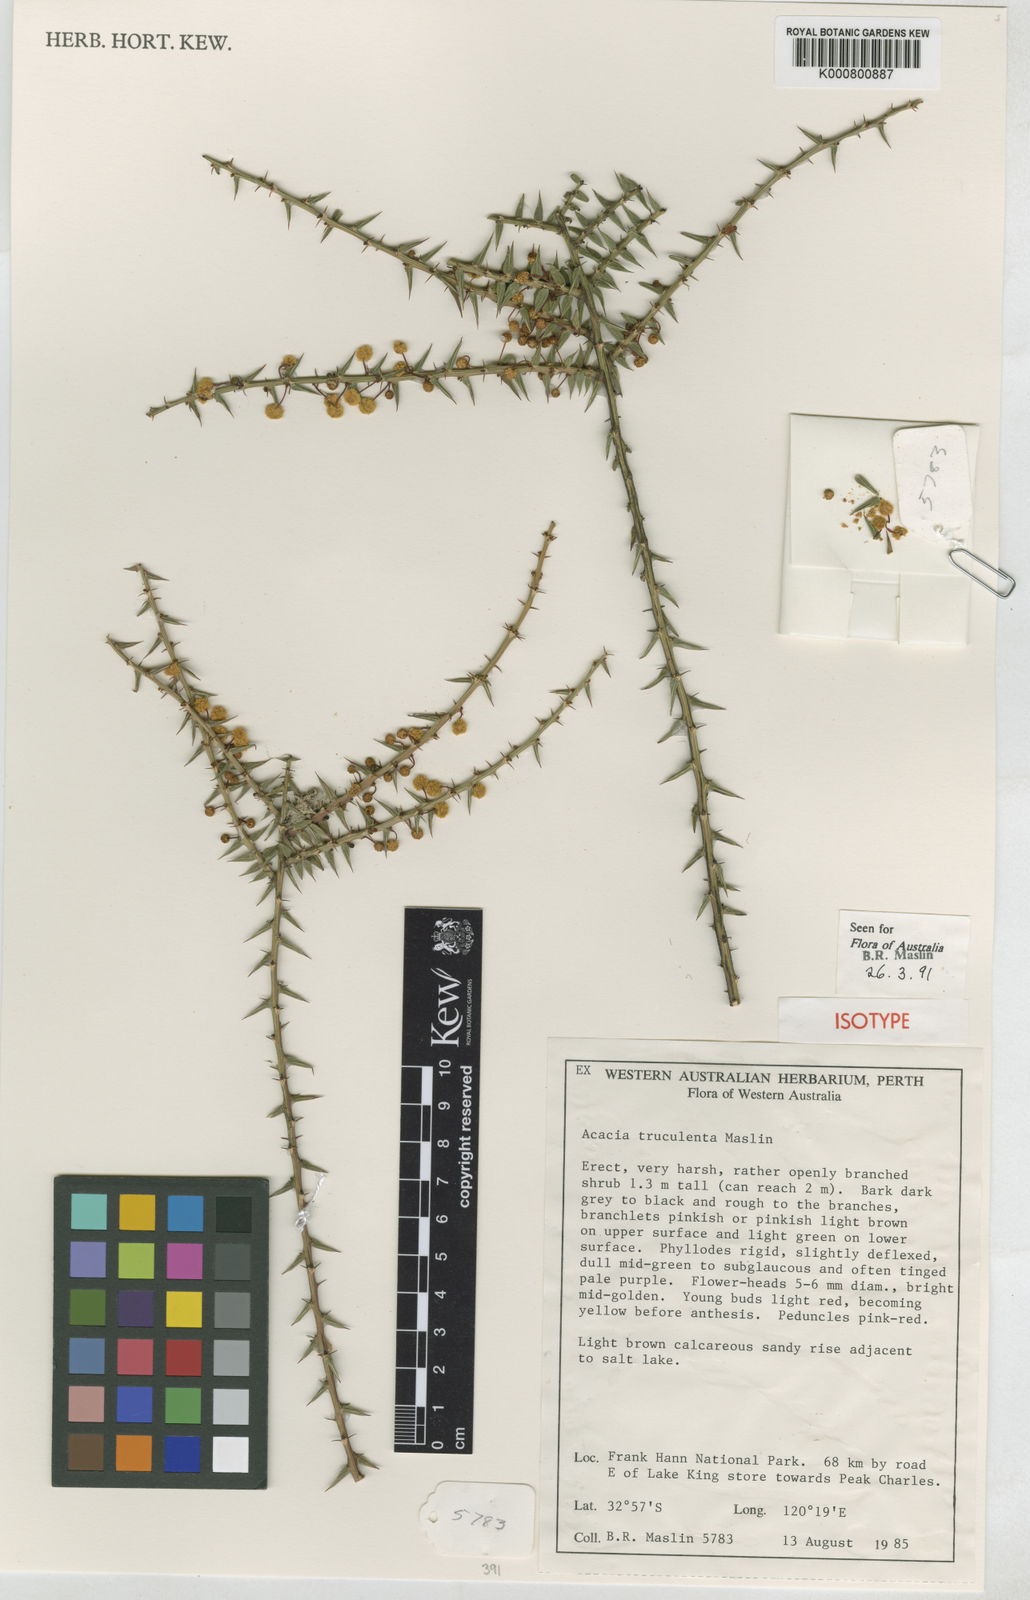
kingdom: Plantae
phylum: Tracheophyta
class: Magnoliopsida
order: Fabales
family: Fabaceae
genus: Acacia
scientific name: Acacia truculenta
